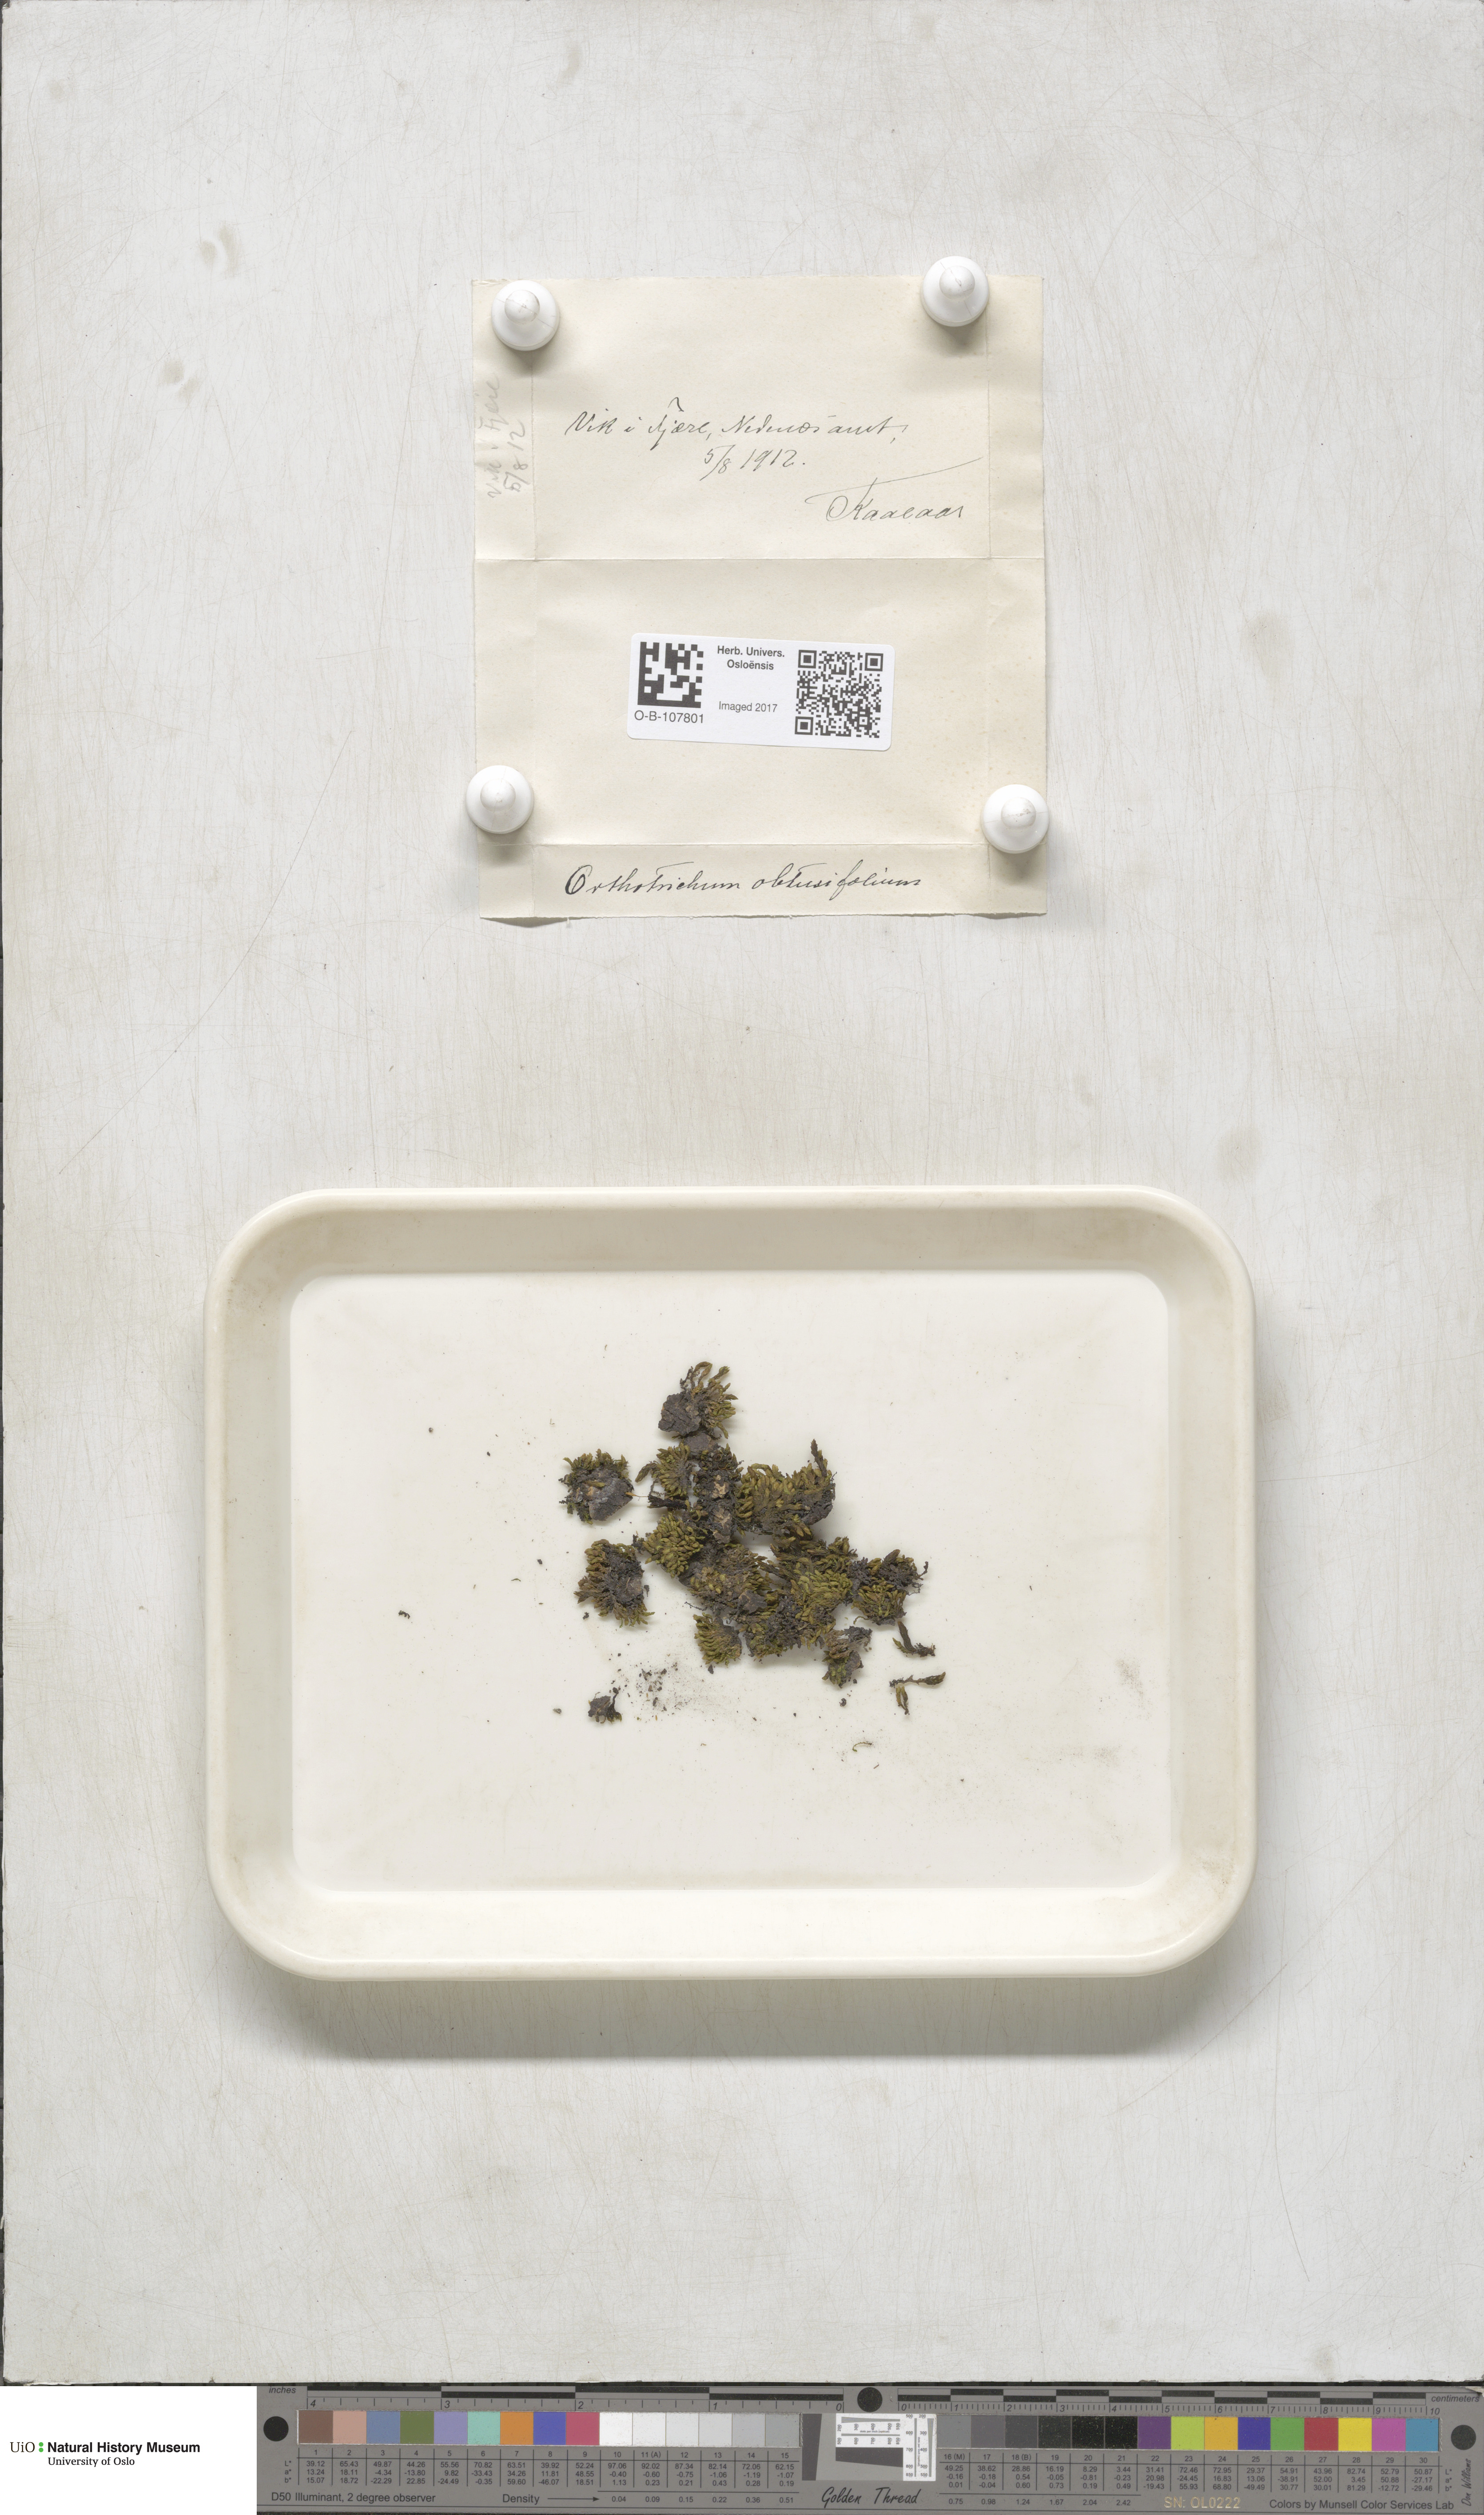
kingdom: Plantae
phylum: Bryophyta
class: Bryopsida
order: Orthotrichales
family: Orthotrichaceae
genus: Nyholmiella
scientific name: Nyholmiella obtusifolia
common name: Blunt-leaved bristle-moss
